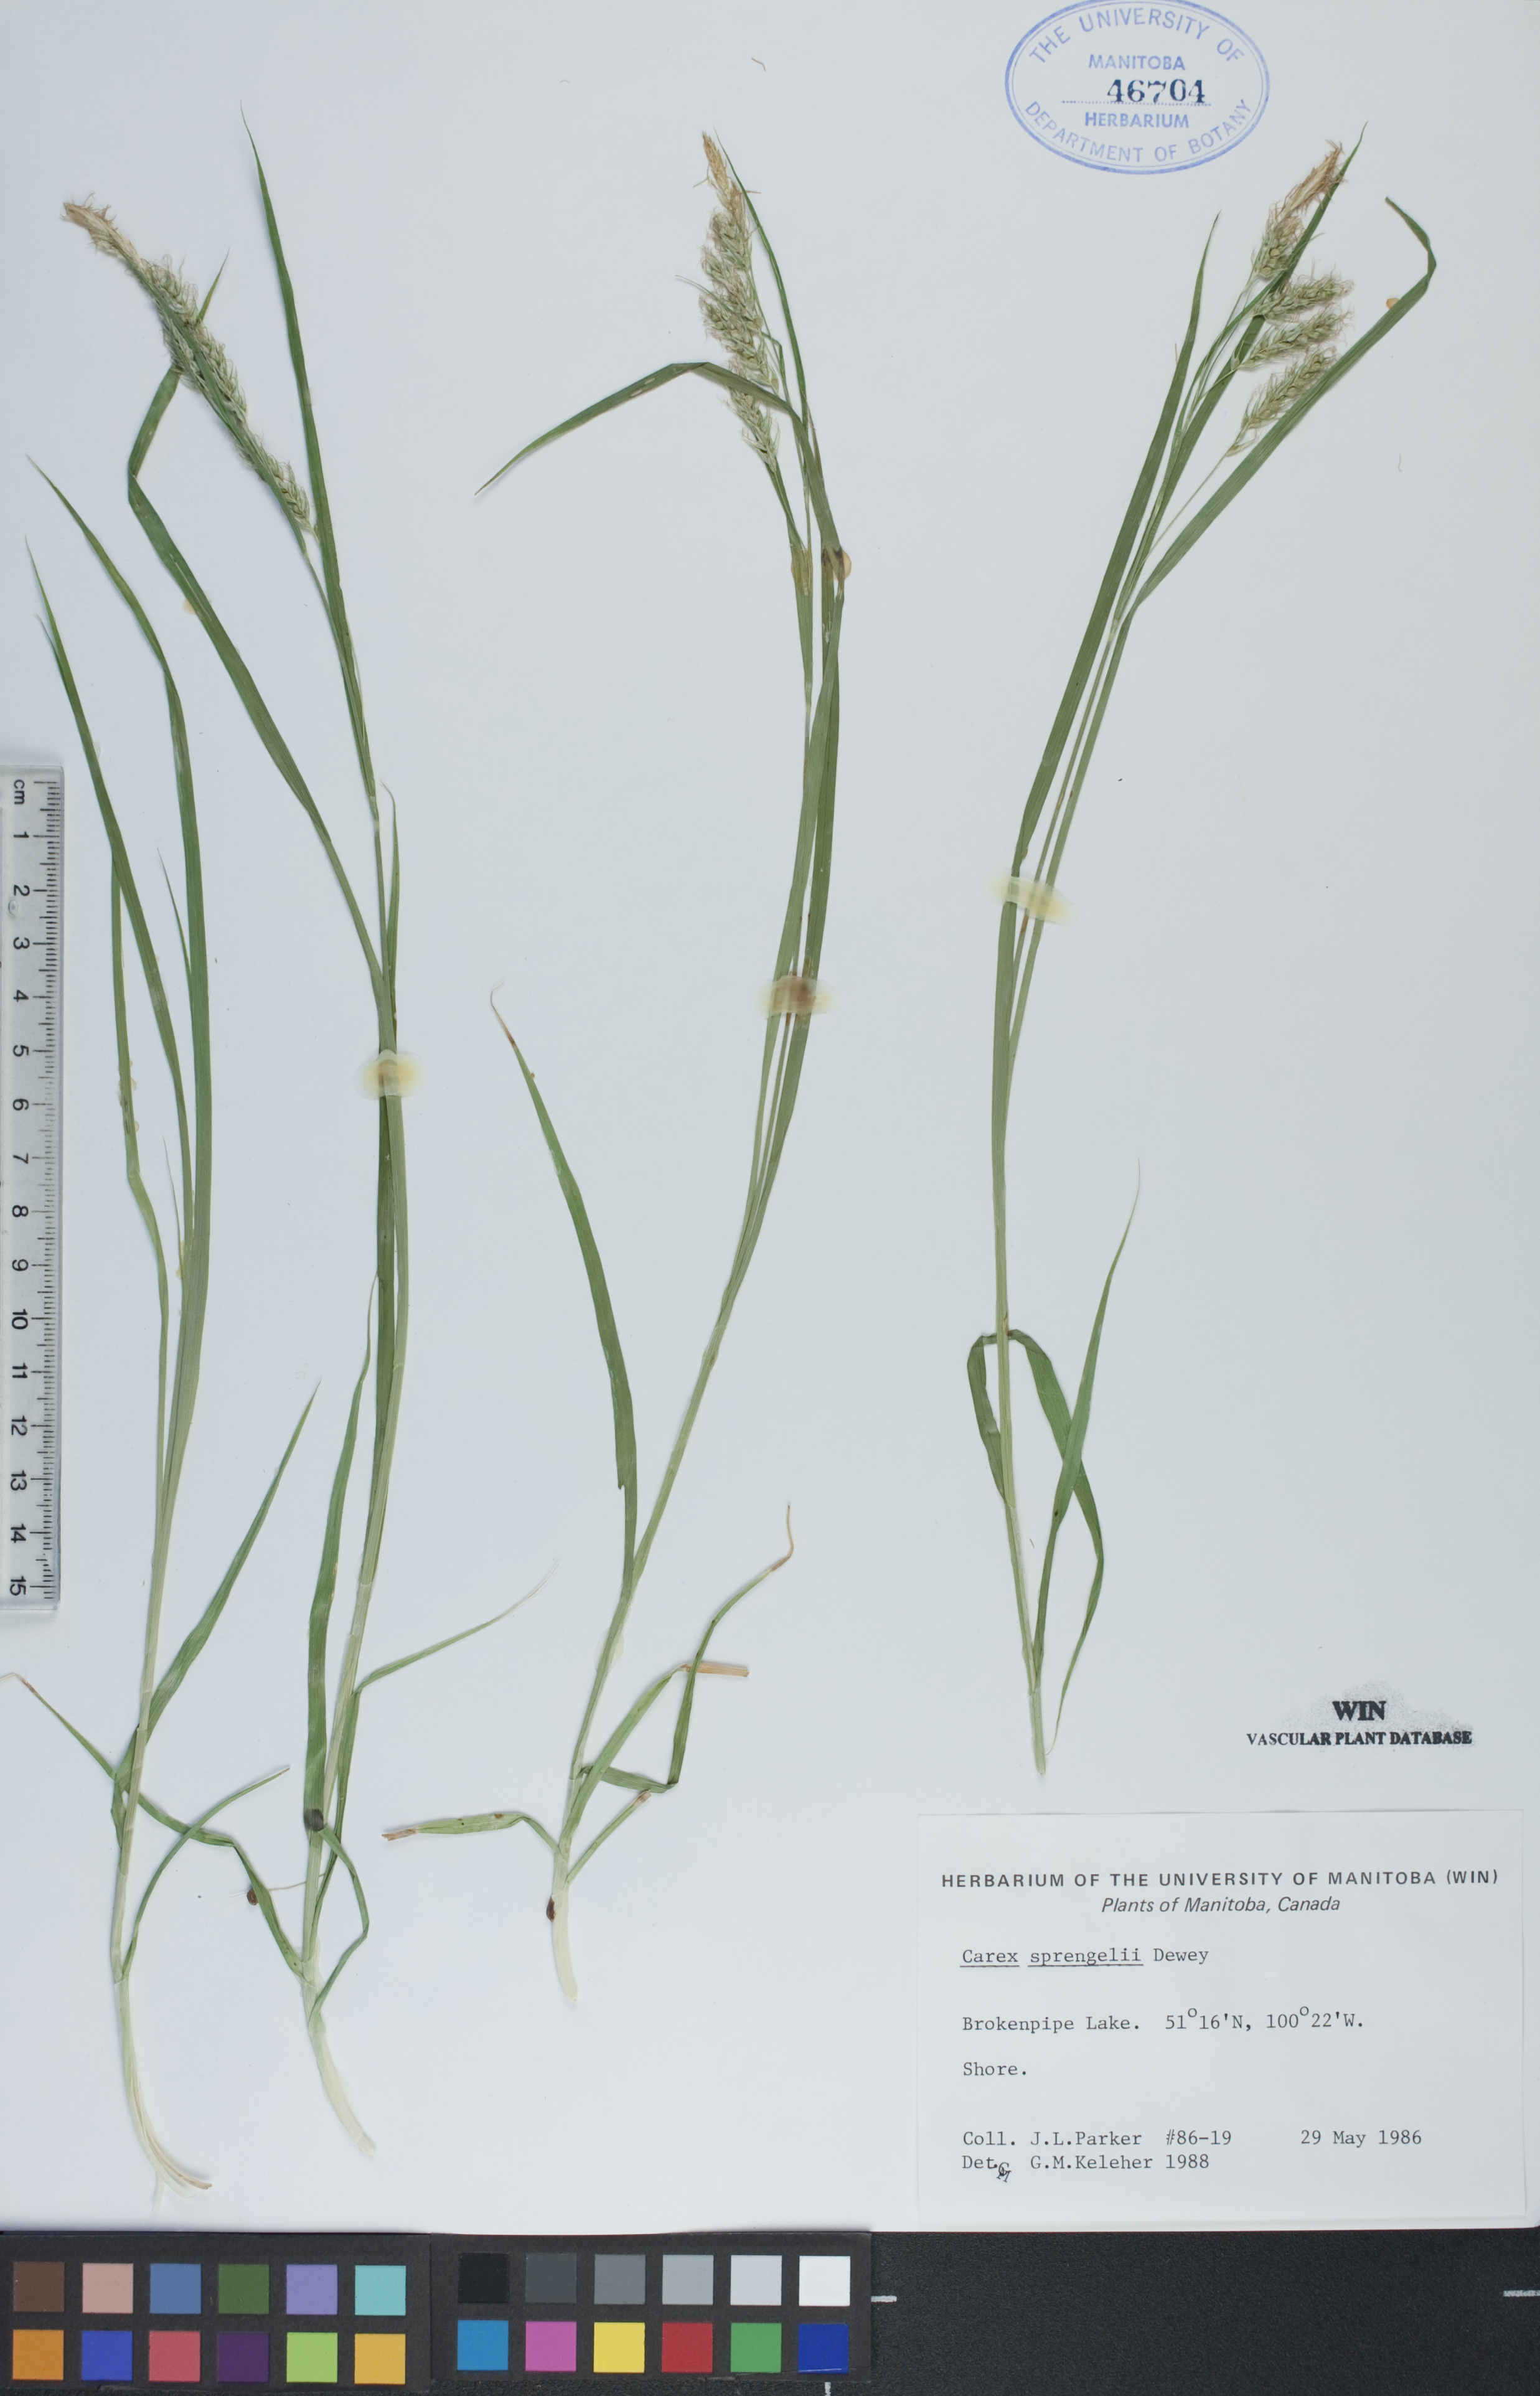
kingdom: Plantae
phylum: Tracheophyta
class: Liliopsida
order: Poales
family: Cyperaceae
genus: Carex
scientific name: Carex sprengelii
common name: Long-beaked sedge
